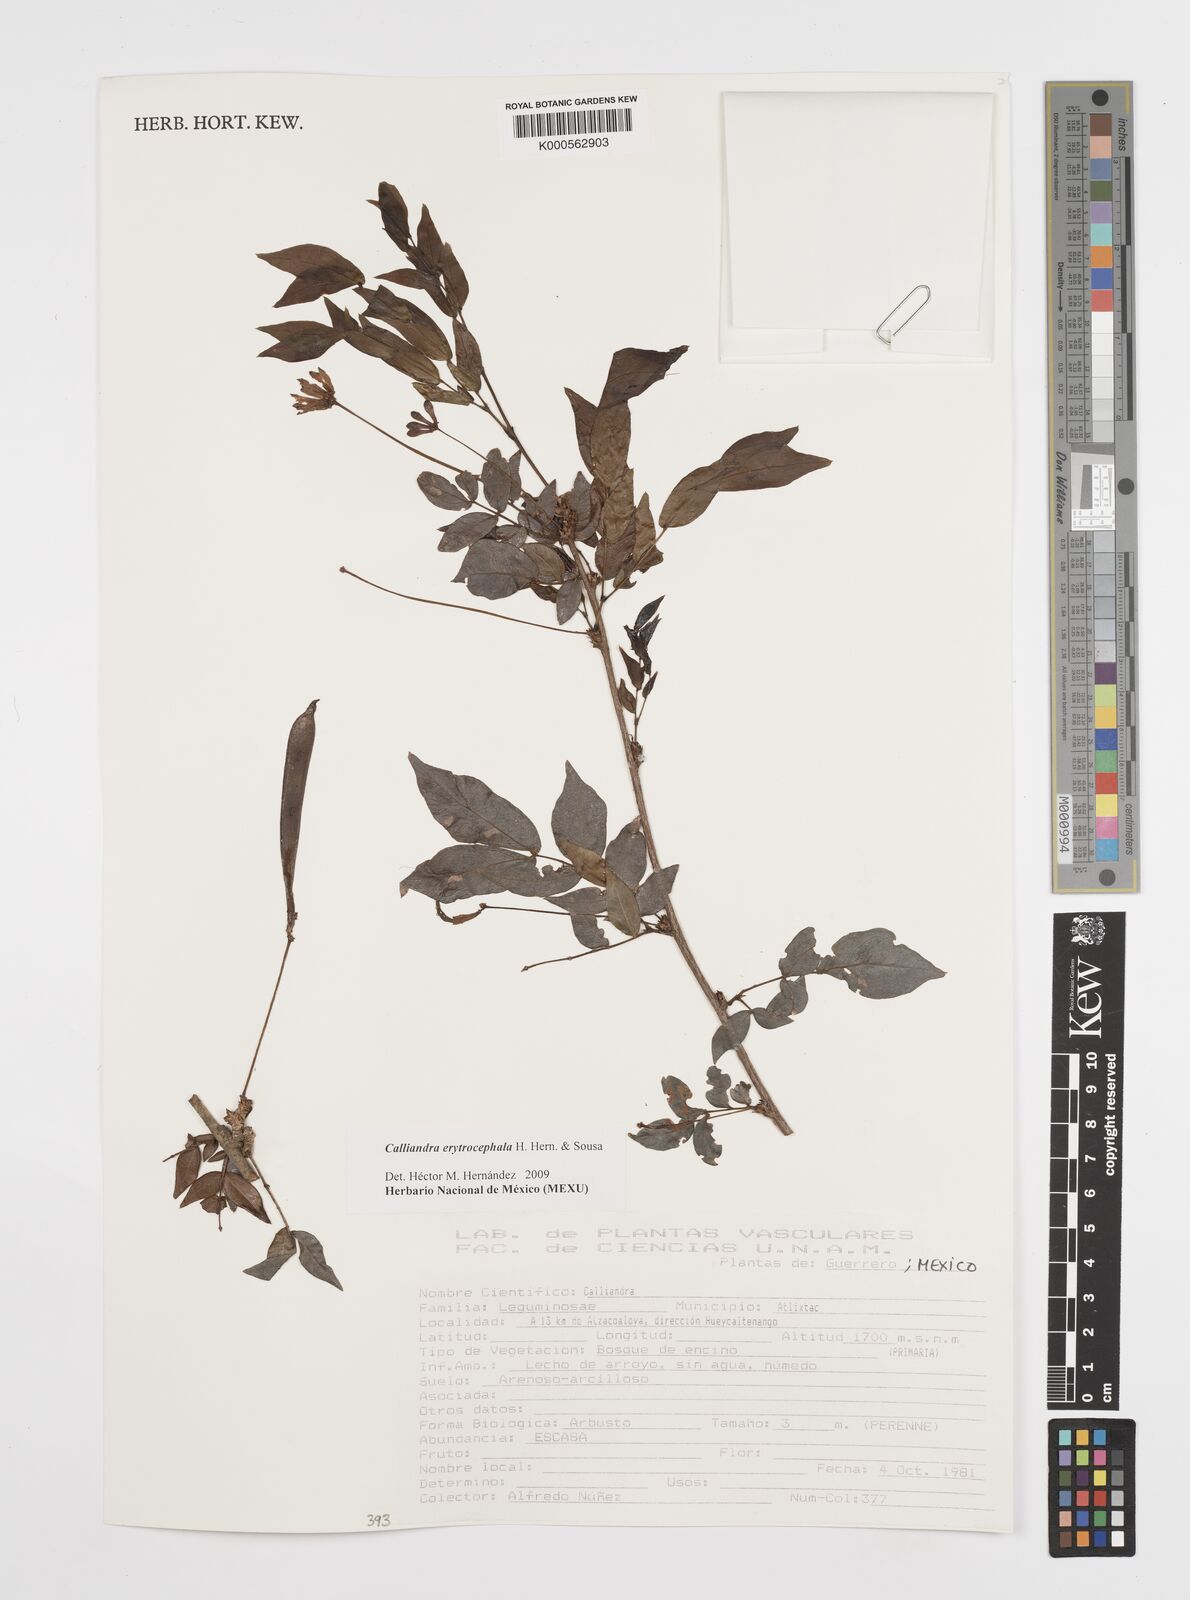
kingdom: Plantae
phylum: Tracheophyta
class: Magnoliopsida
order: Fabales
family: Fabaceae
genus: Calliandra
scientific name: Calliandra
